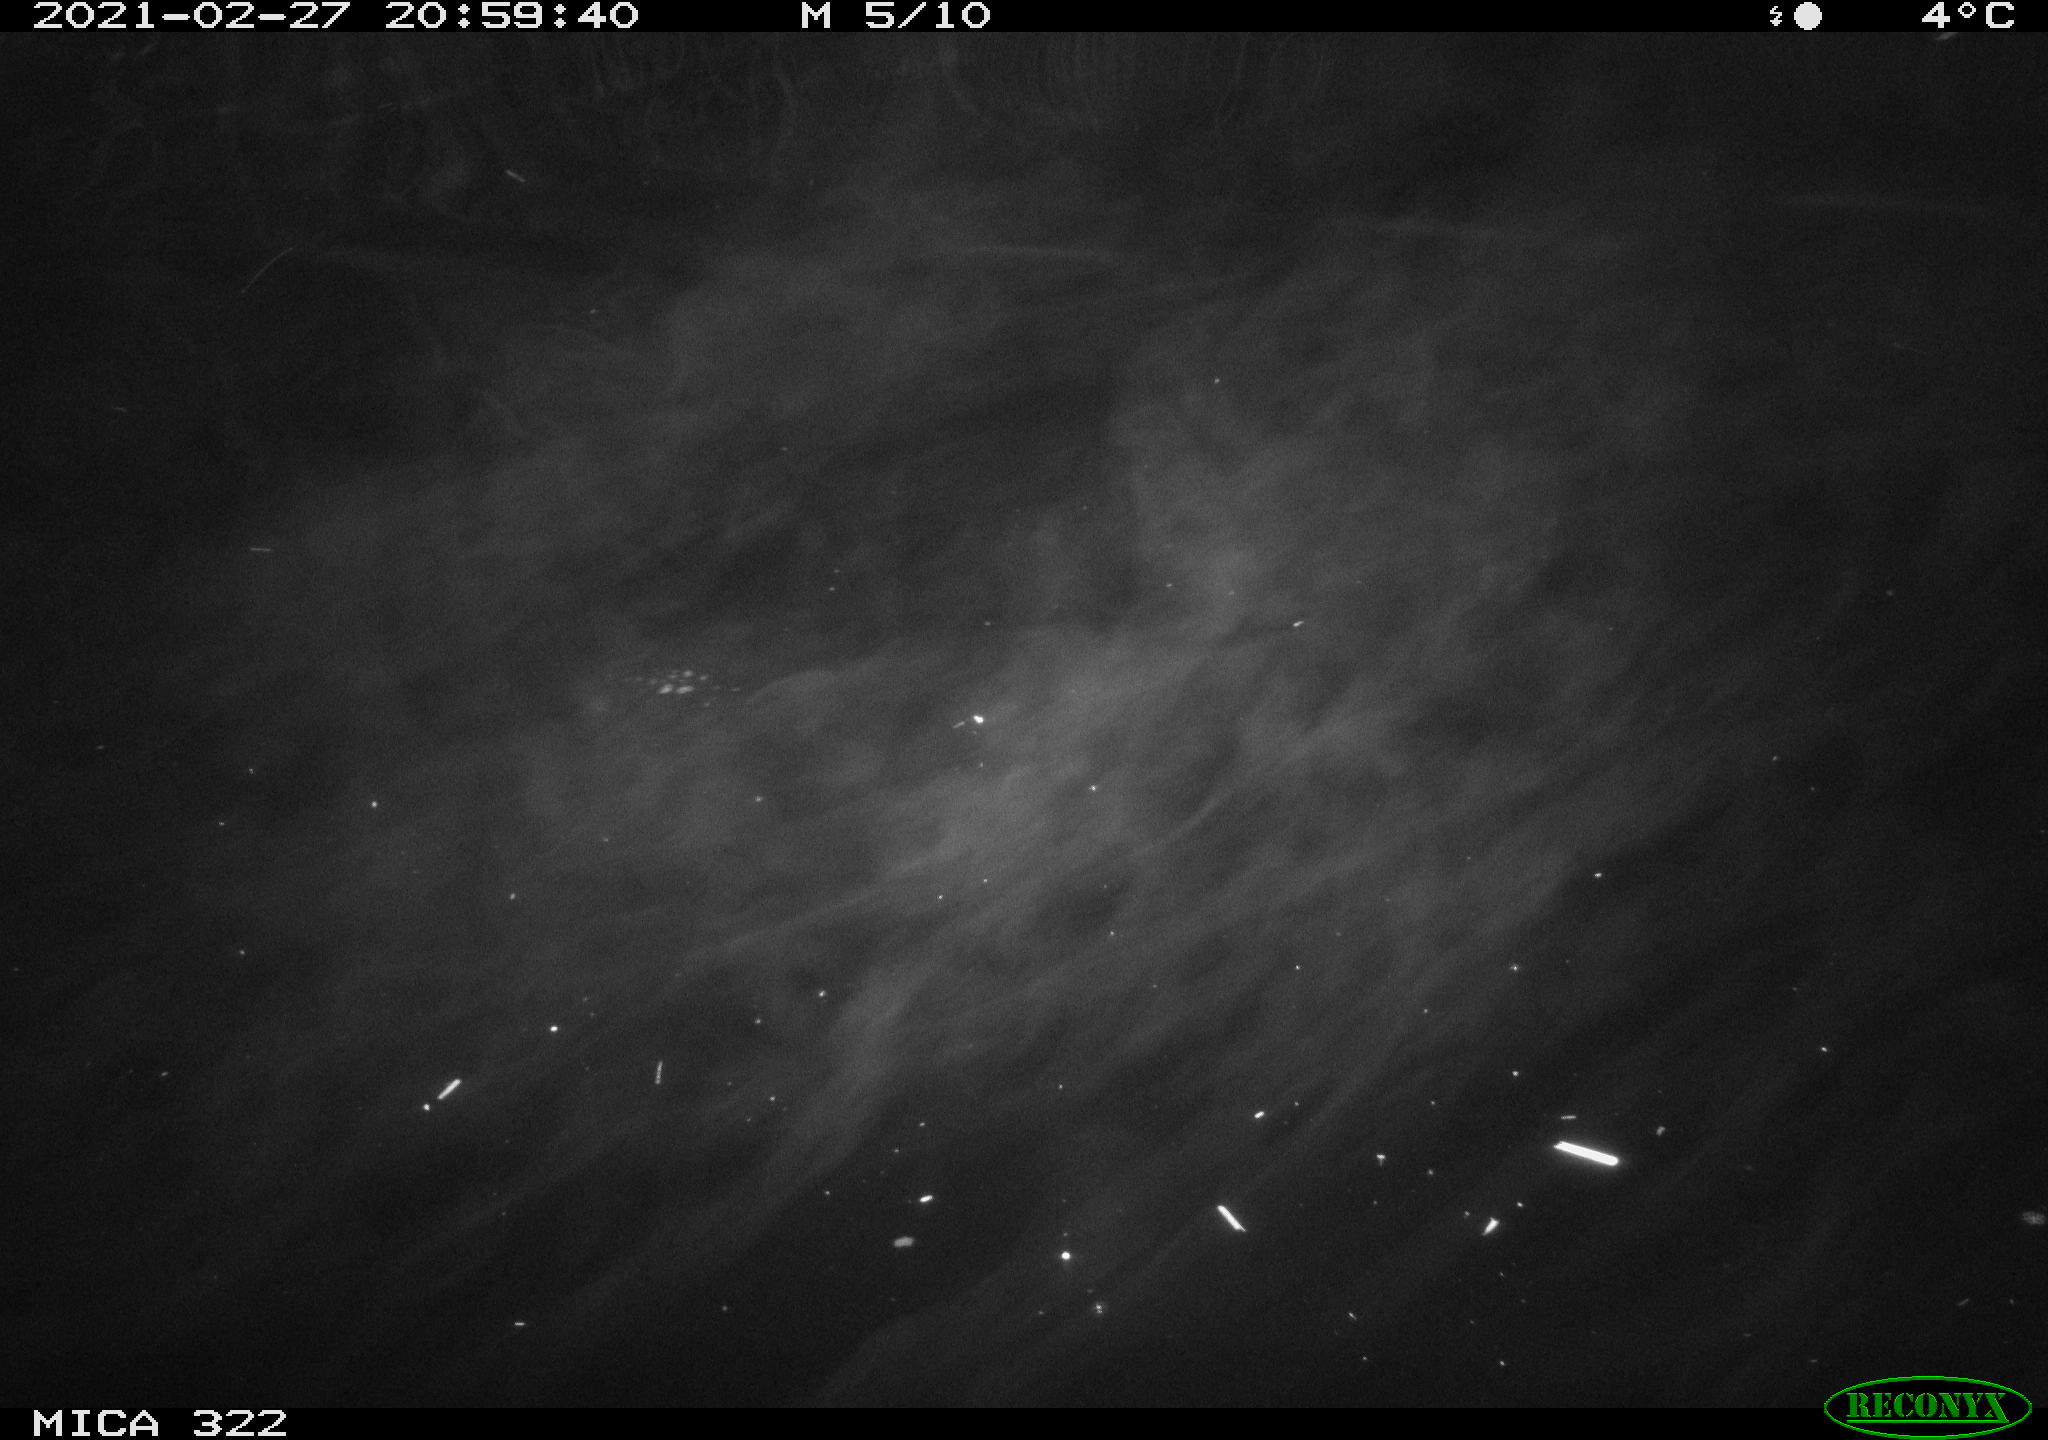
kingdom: Animalia
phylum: Chordata
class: Aves
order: Anseriformes
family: Anatidae
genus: Anas
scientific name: Anas platyrhynchos
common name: Mallard
